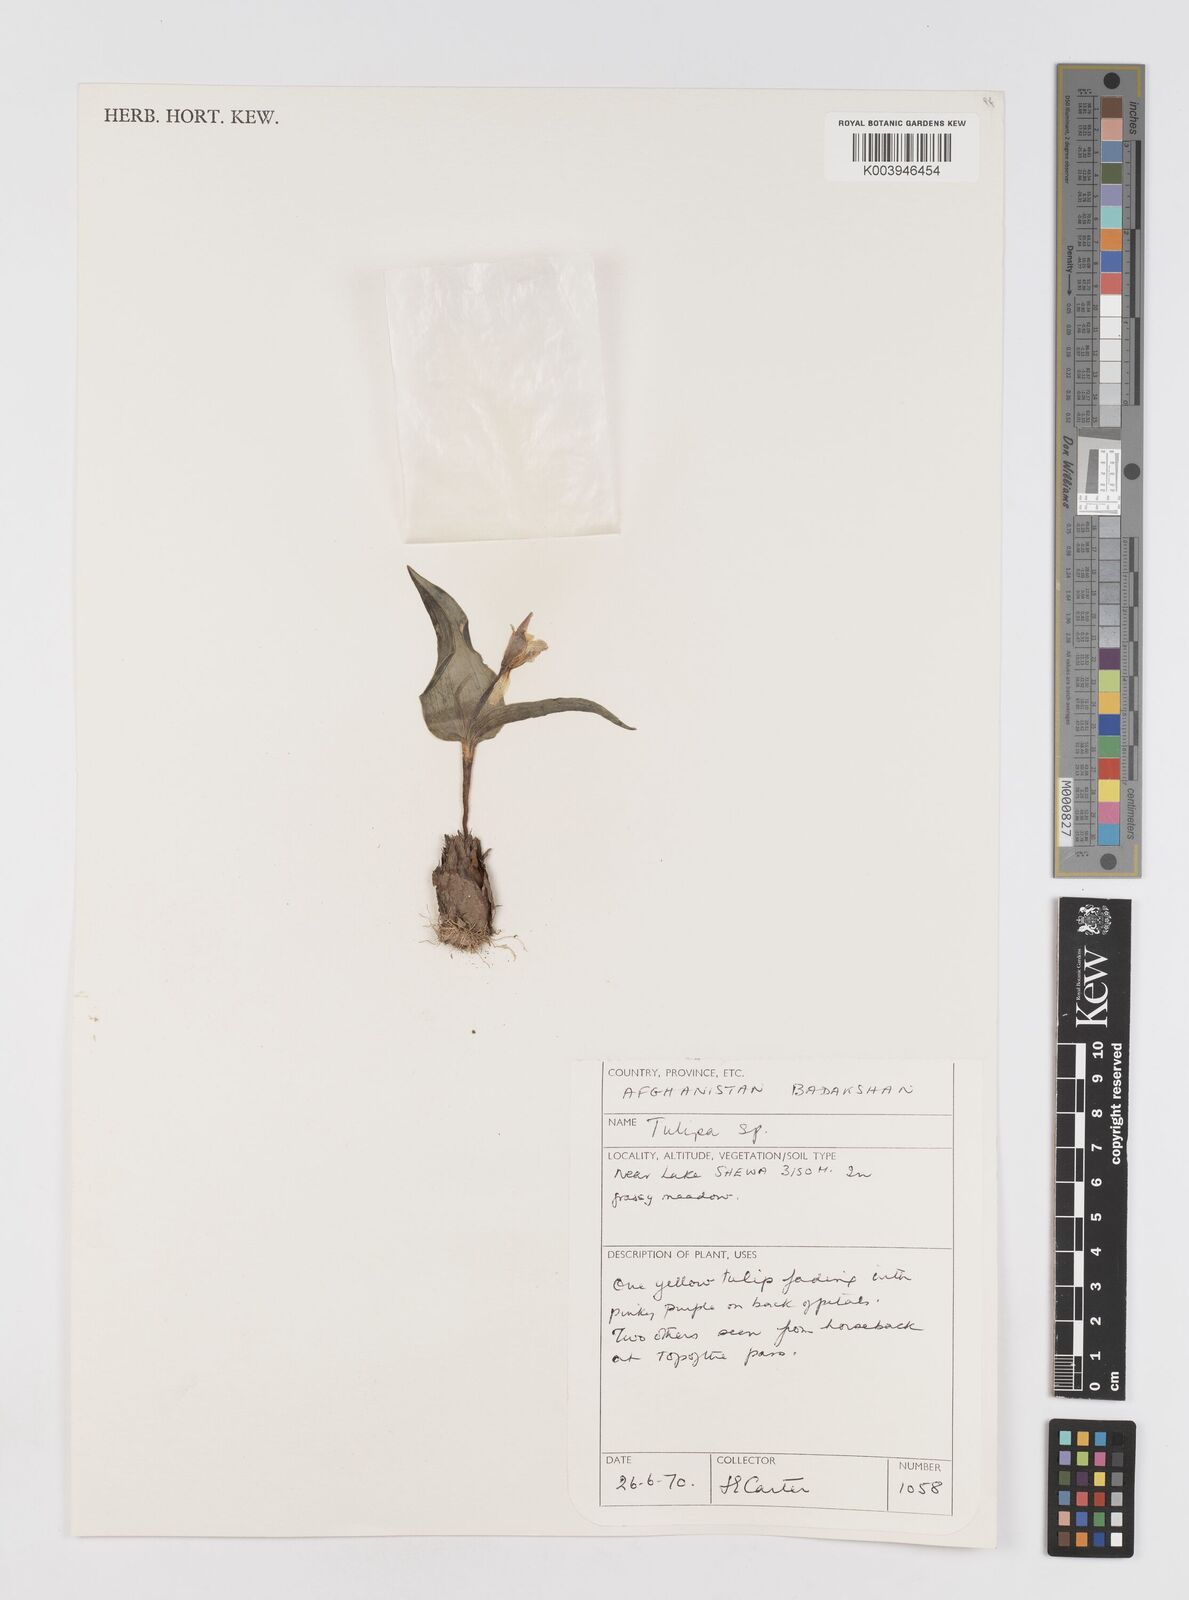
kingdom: Plantae
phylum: Tracheophyta
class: Liliopsida
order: Liliales
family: Liliaceae
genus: Tulipa
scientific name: Tulipa
